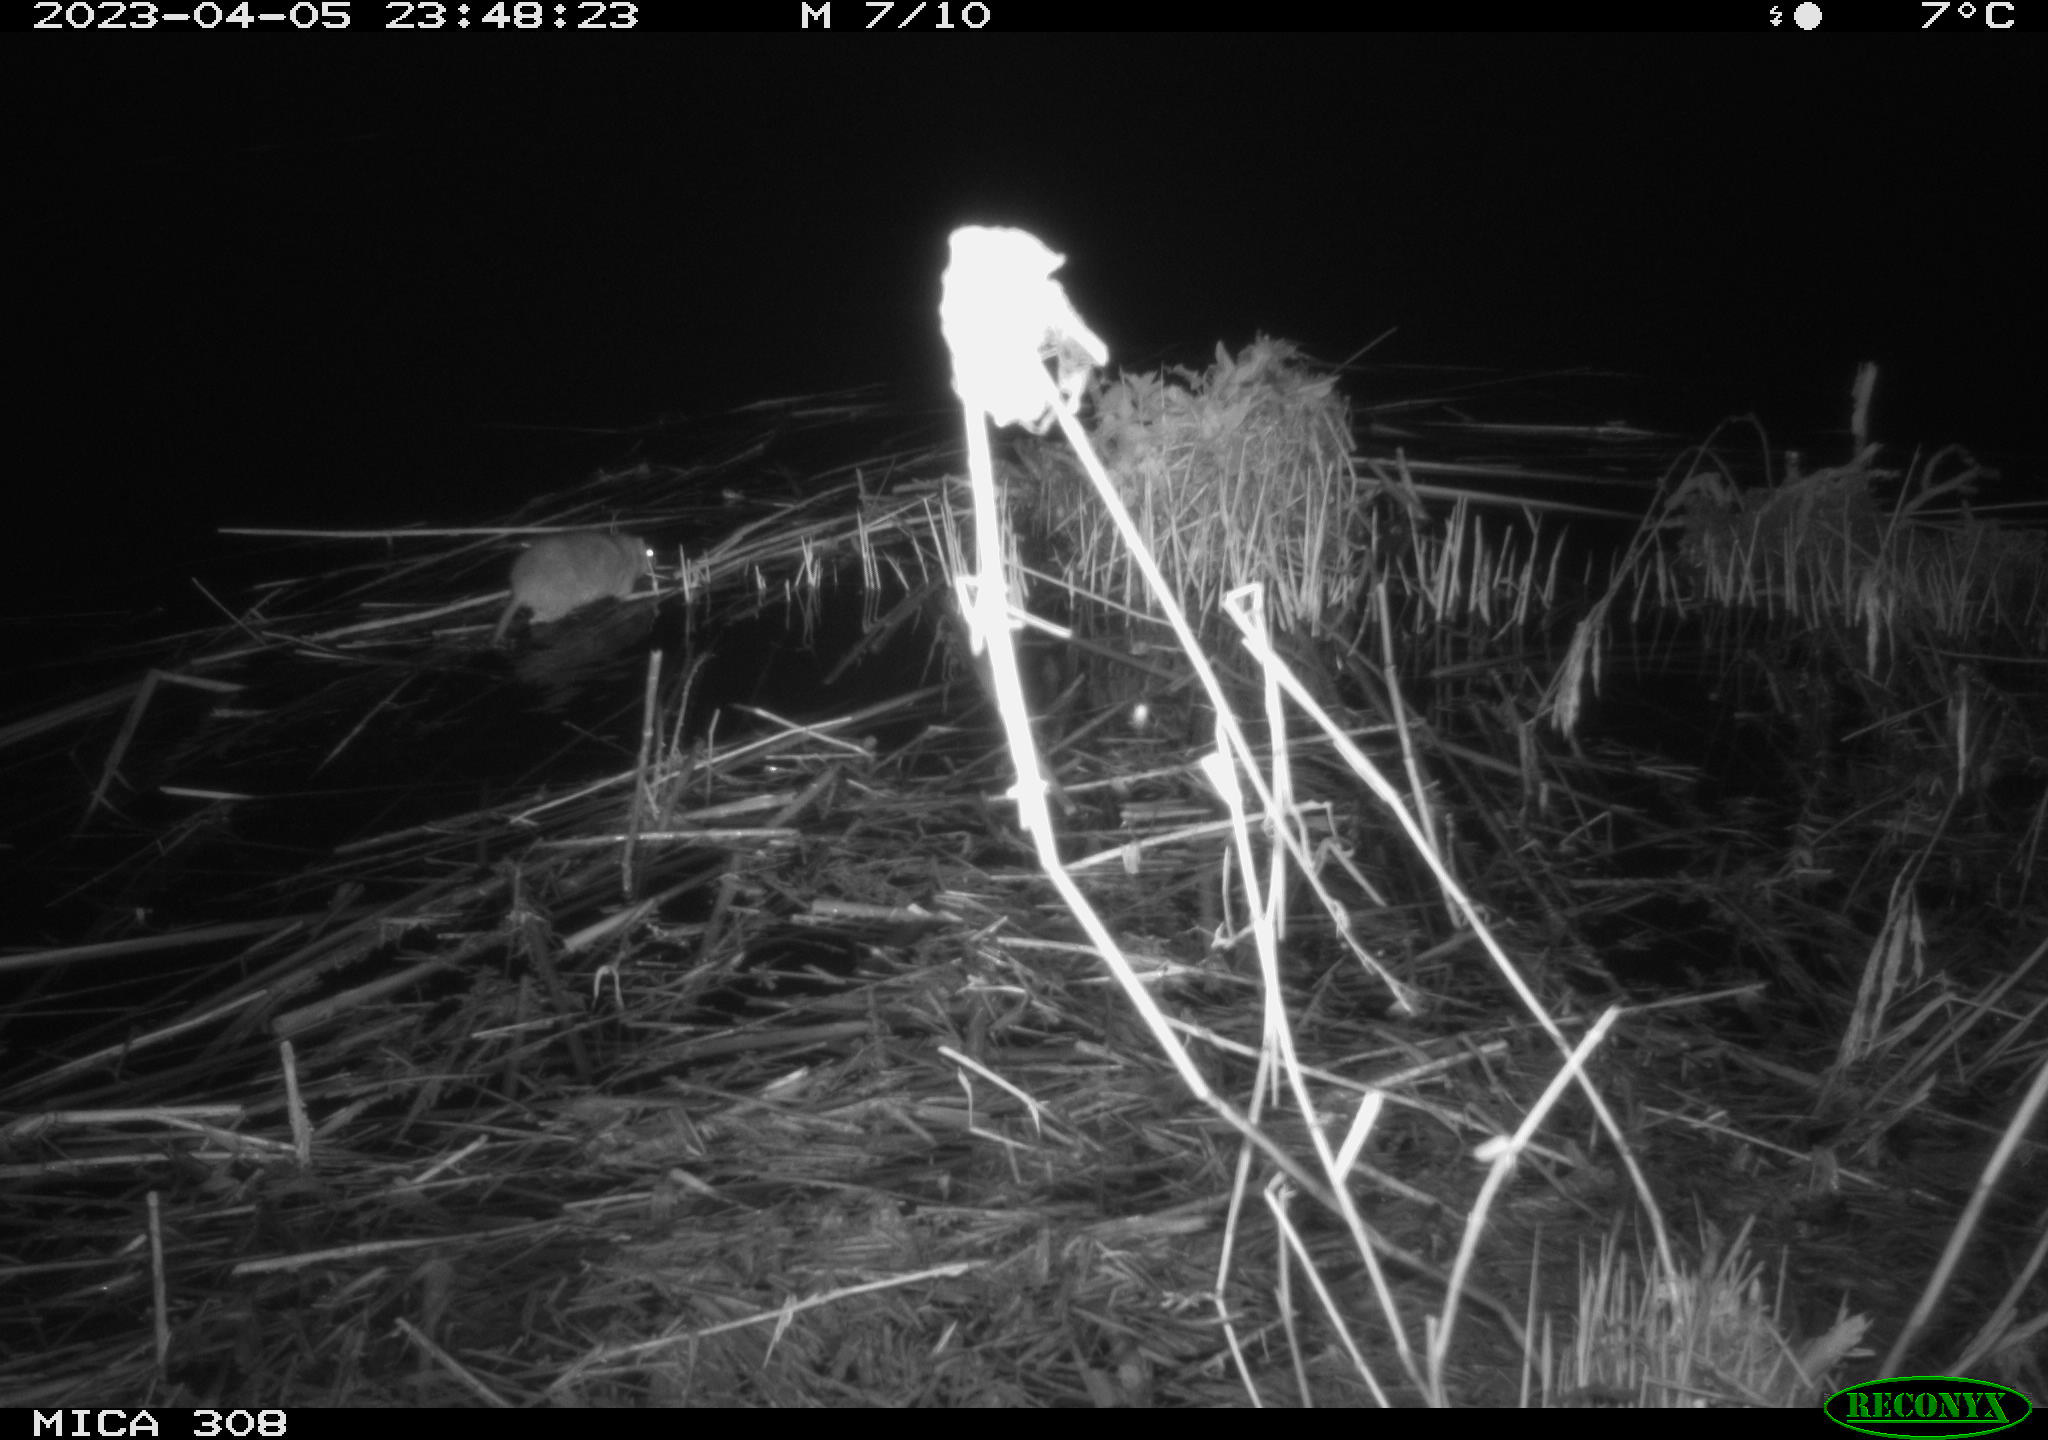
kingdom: Animalia
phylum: Chordata
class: Mammalia
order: Rodentia
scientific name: Rodentia
